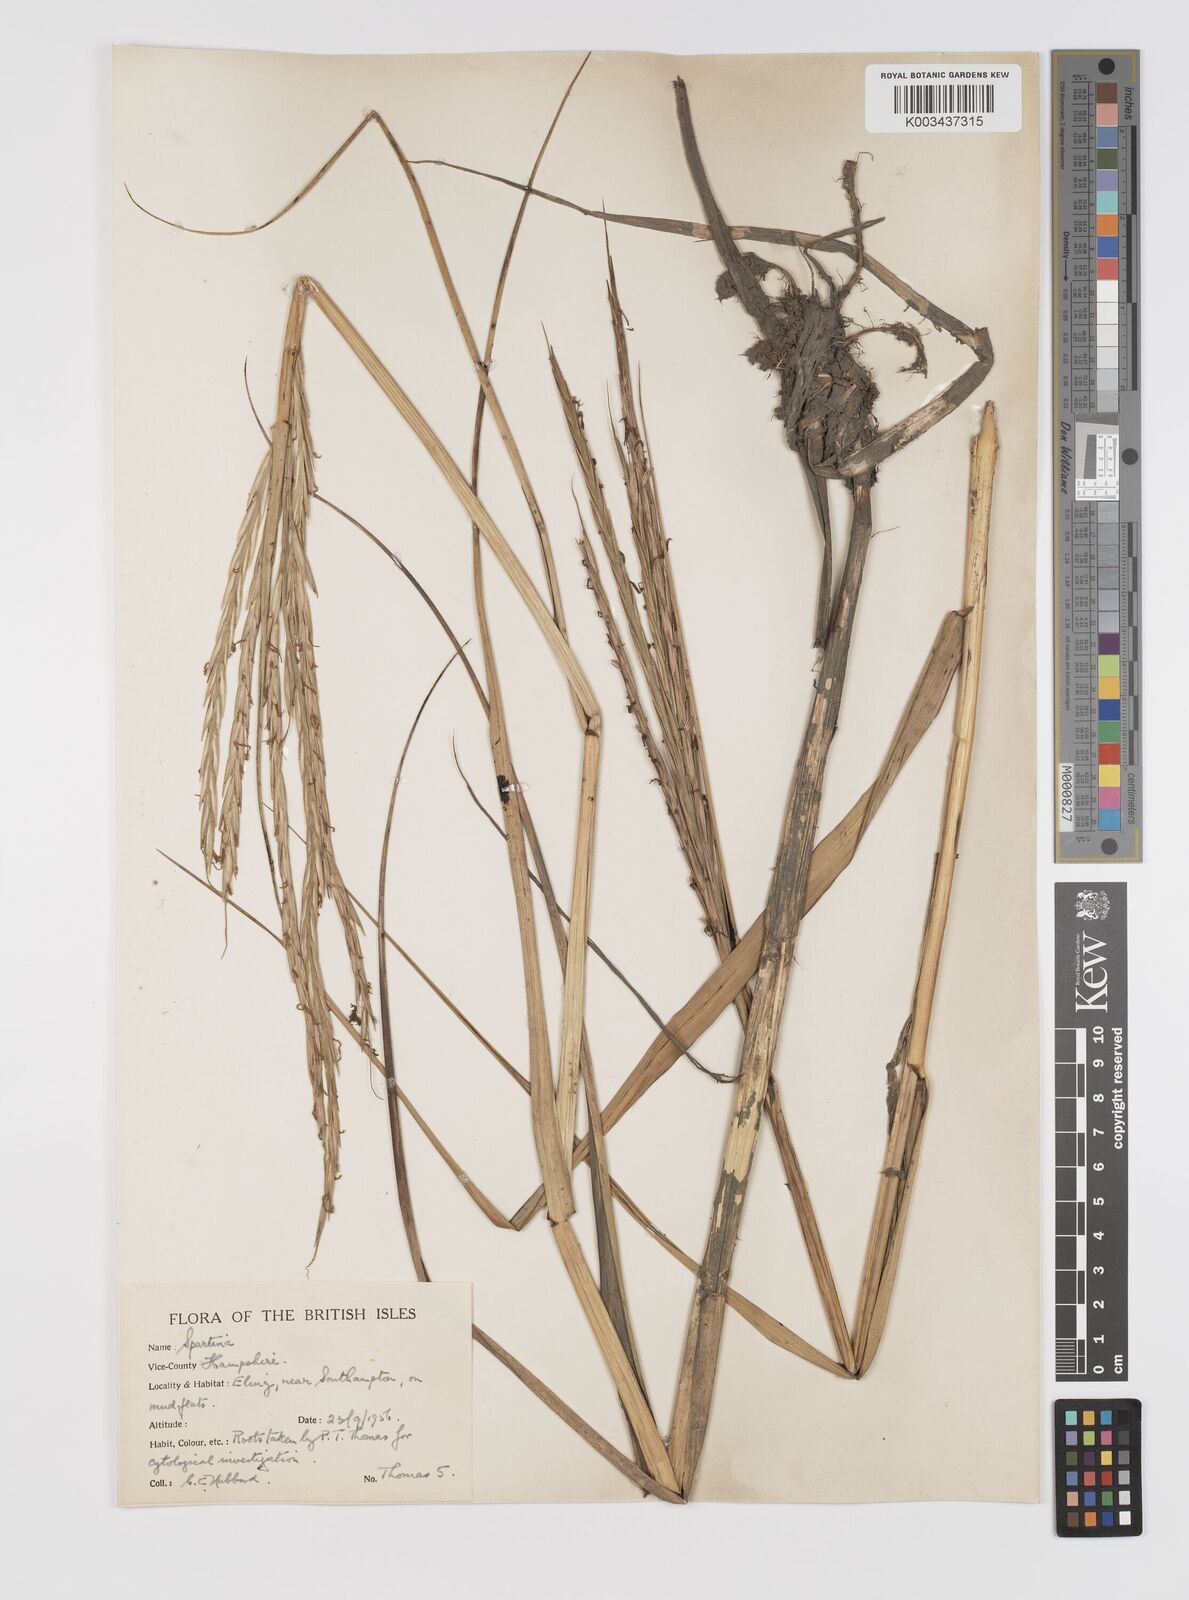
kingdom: Plantae
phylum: Tracheophyta
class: Liliopsida
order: Poales
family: Poaceae
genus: Sporobolus
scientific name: Sporobolus townsendii
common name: Townsend's cordgrass
